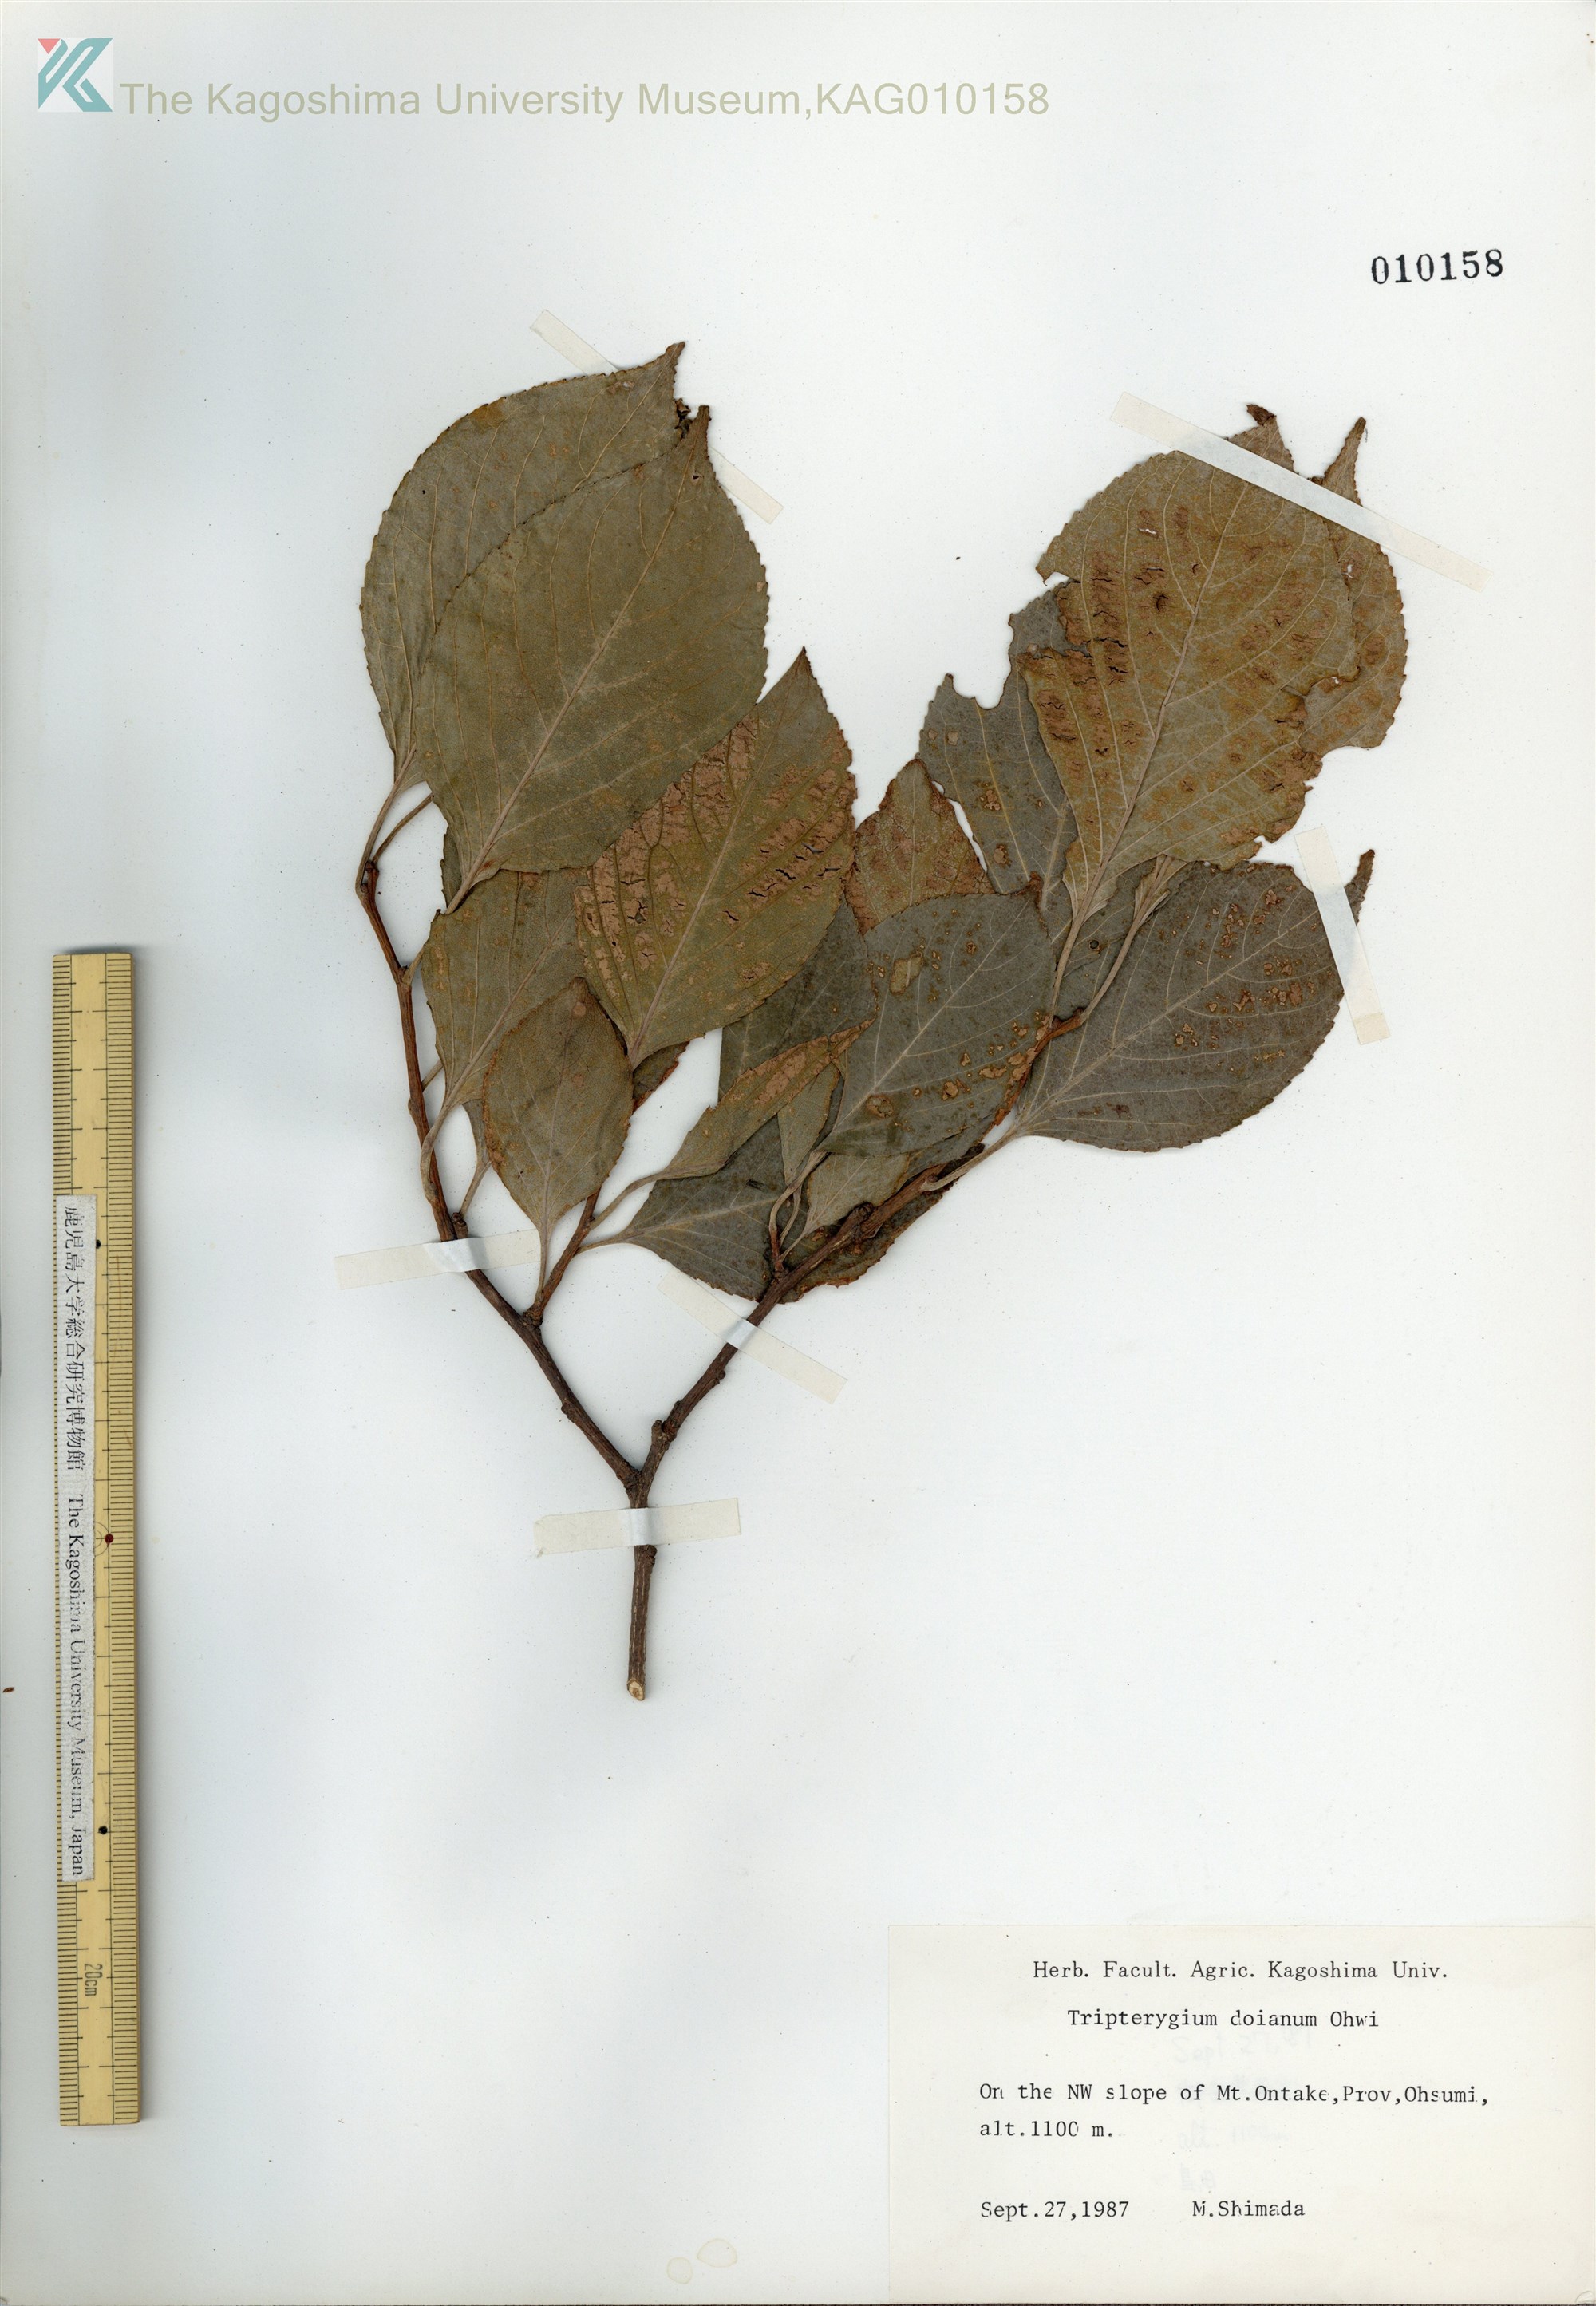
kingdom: Plantae
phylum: Tracheophyta
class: Magnoliopsida
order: Celastrales
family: Celastraceae
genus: Tripterygium
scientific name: Tripterygium doianum
